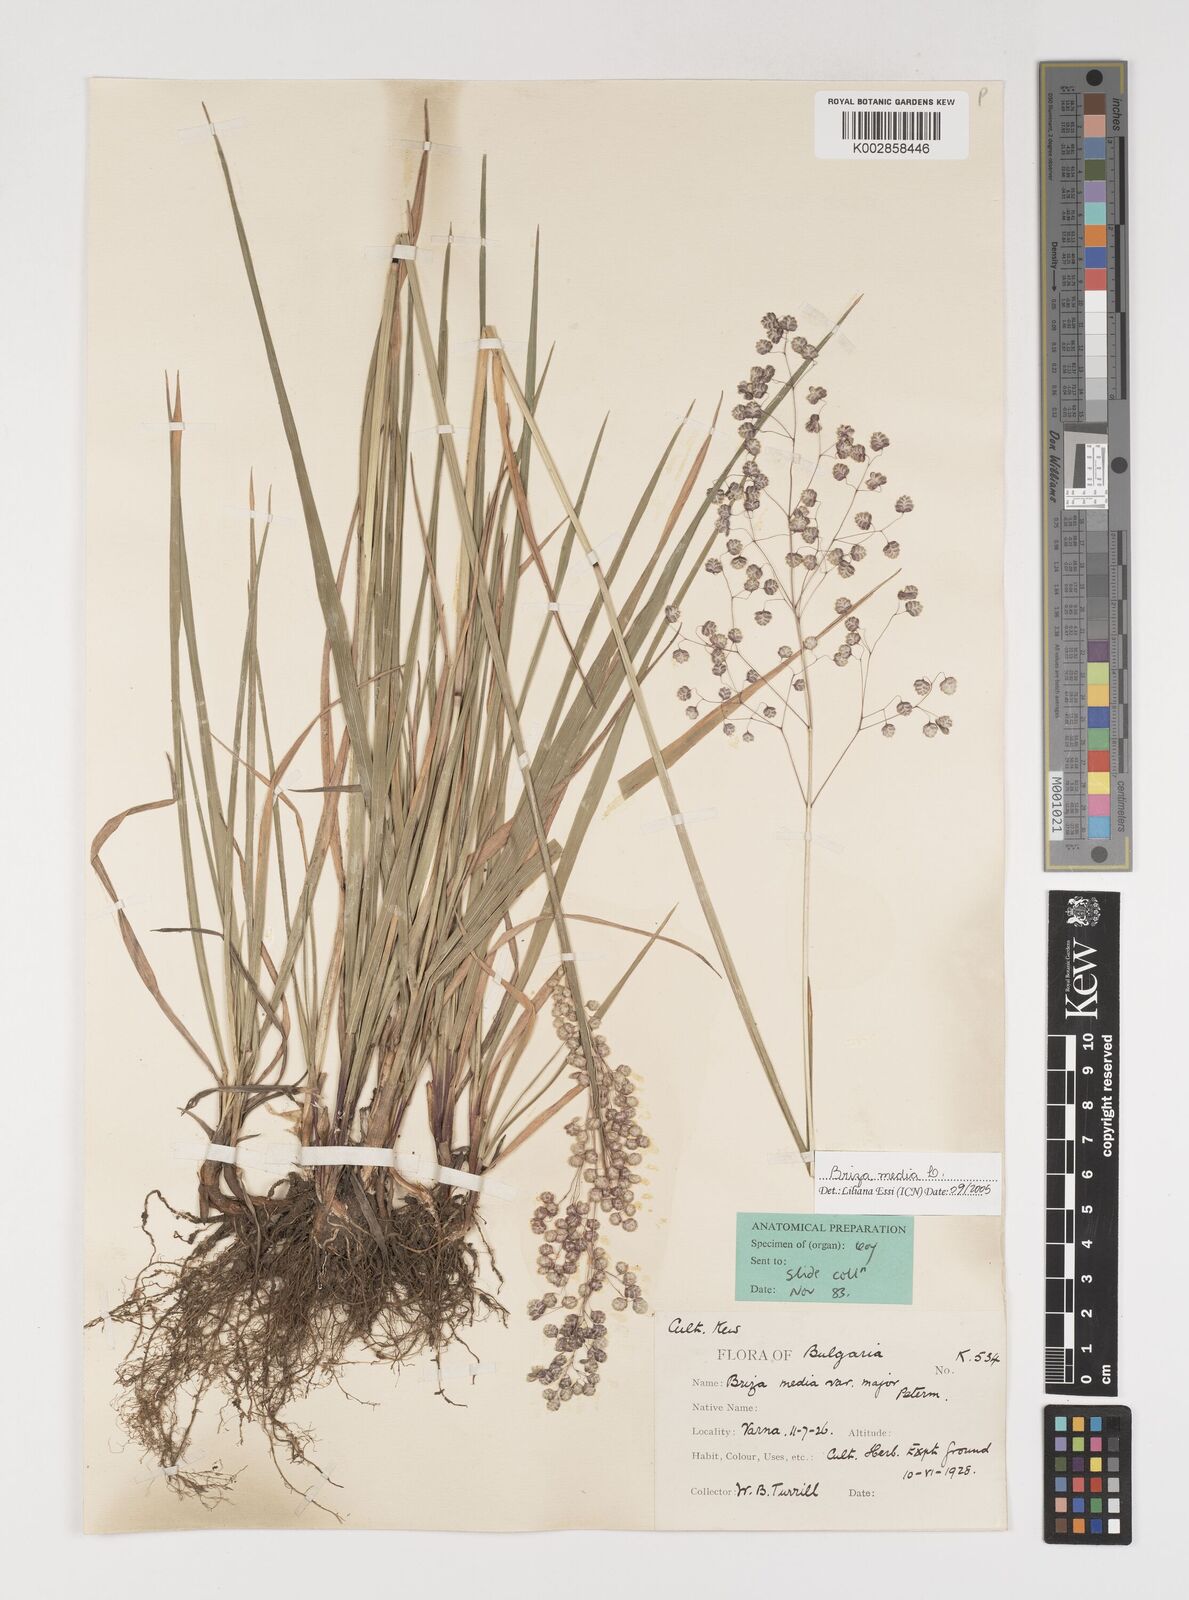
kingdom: Plantae
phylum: Tracheophyta
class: Liliopsida
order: Poales
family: Poaceae
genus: Briza
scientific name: Briza media
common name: Quaking grass
